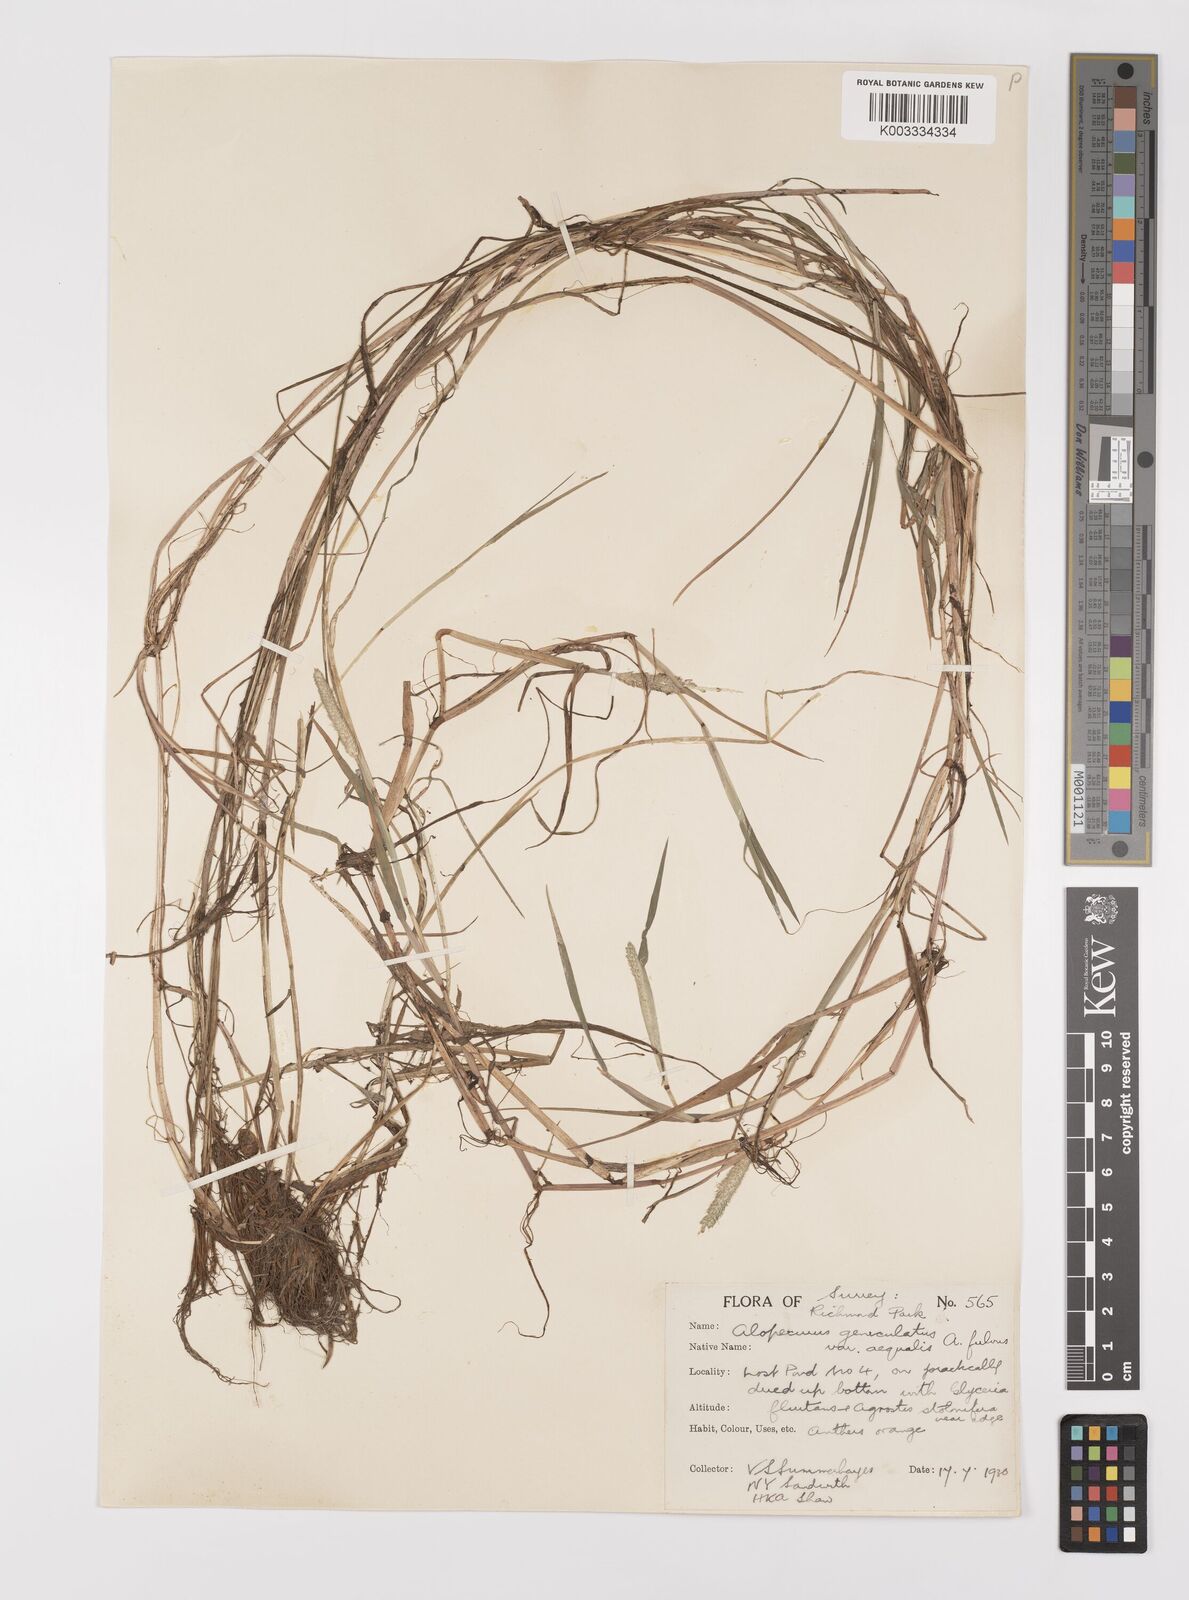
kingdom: Plantae
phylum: Tracheophyta
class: Liliopsida
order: Poales
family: Poaceae
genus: Alopecurus
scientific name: Alopecurus aequalis
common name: Orange foxtail
